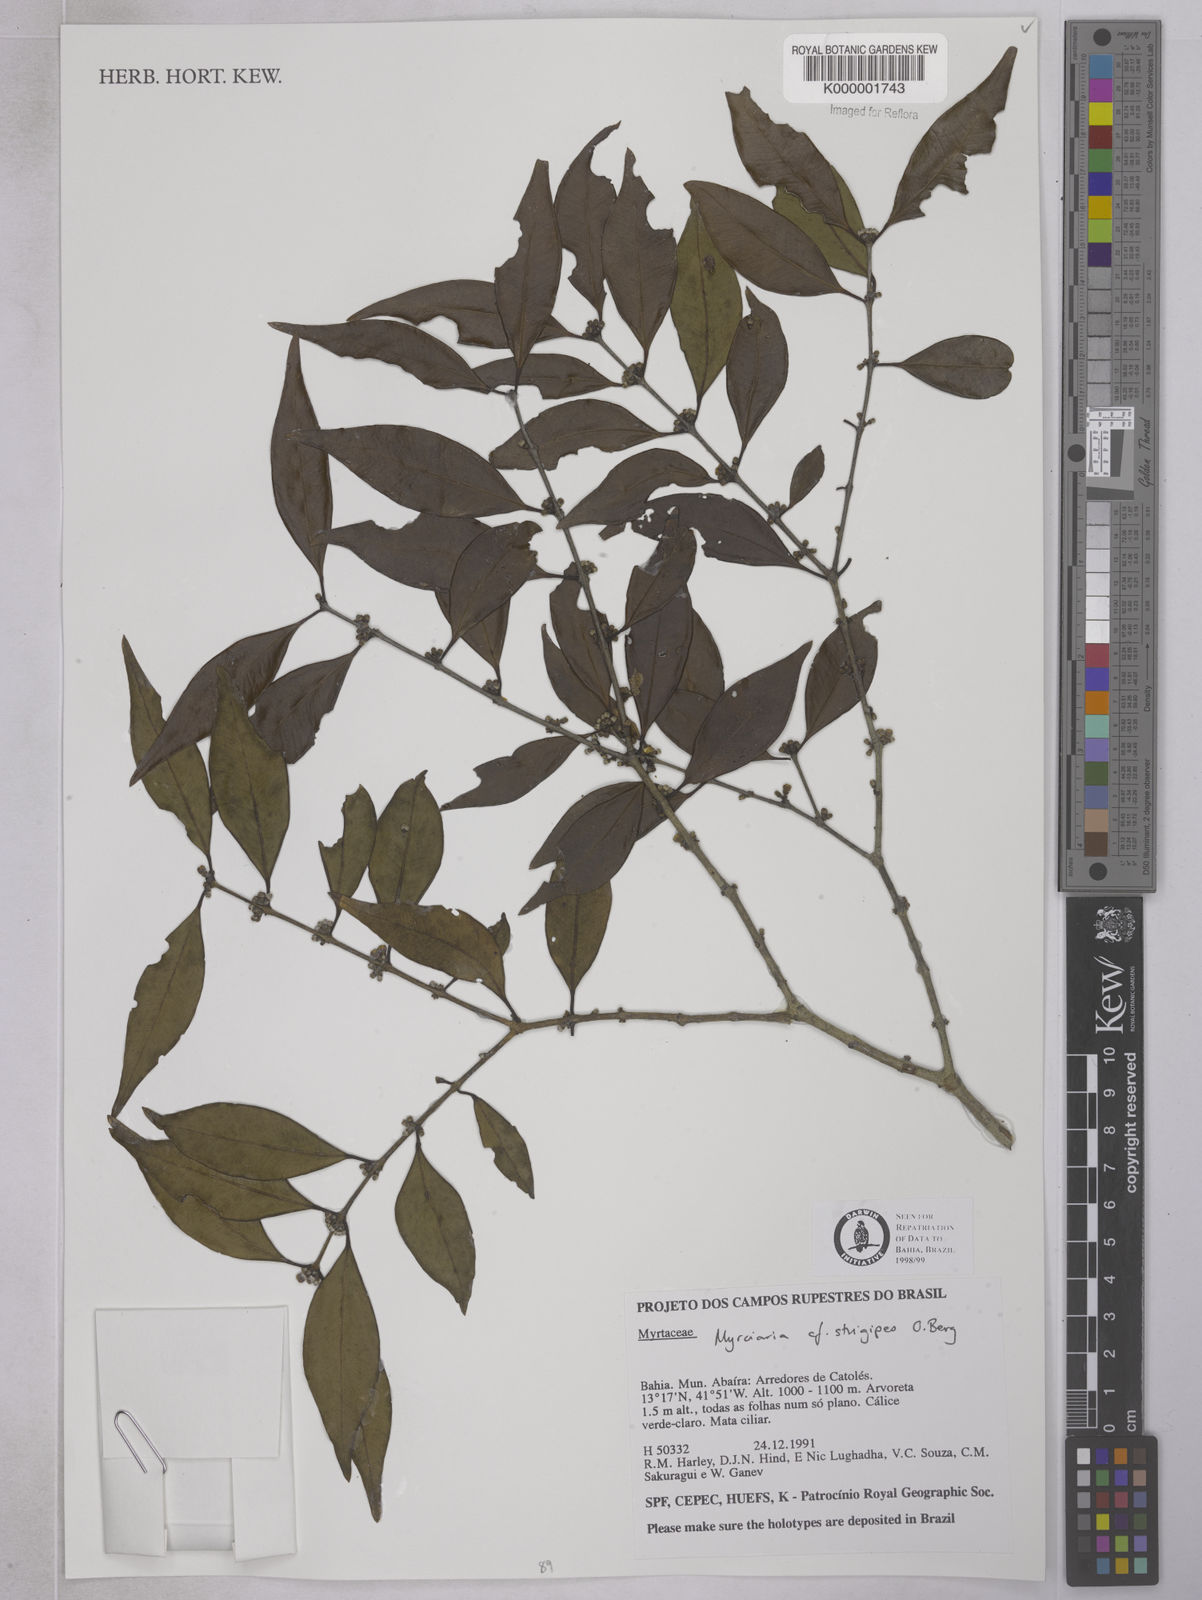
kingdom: Plantae
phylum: Tracheophyta
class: Magnoliopsida
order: Myrtales
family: Myrtaceae
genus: Myrciaria
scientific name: Myrciaria pilosa
